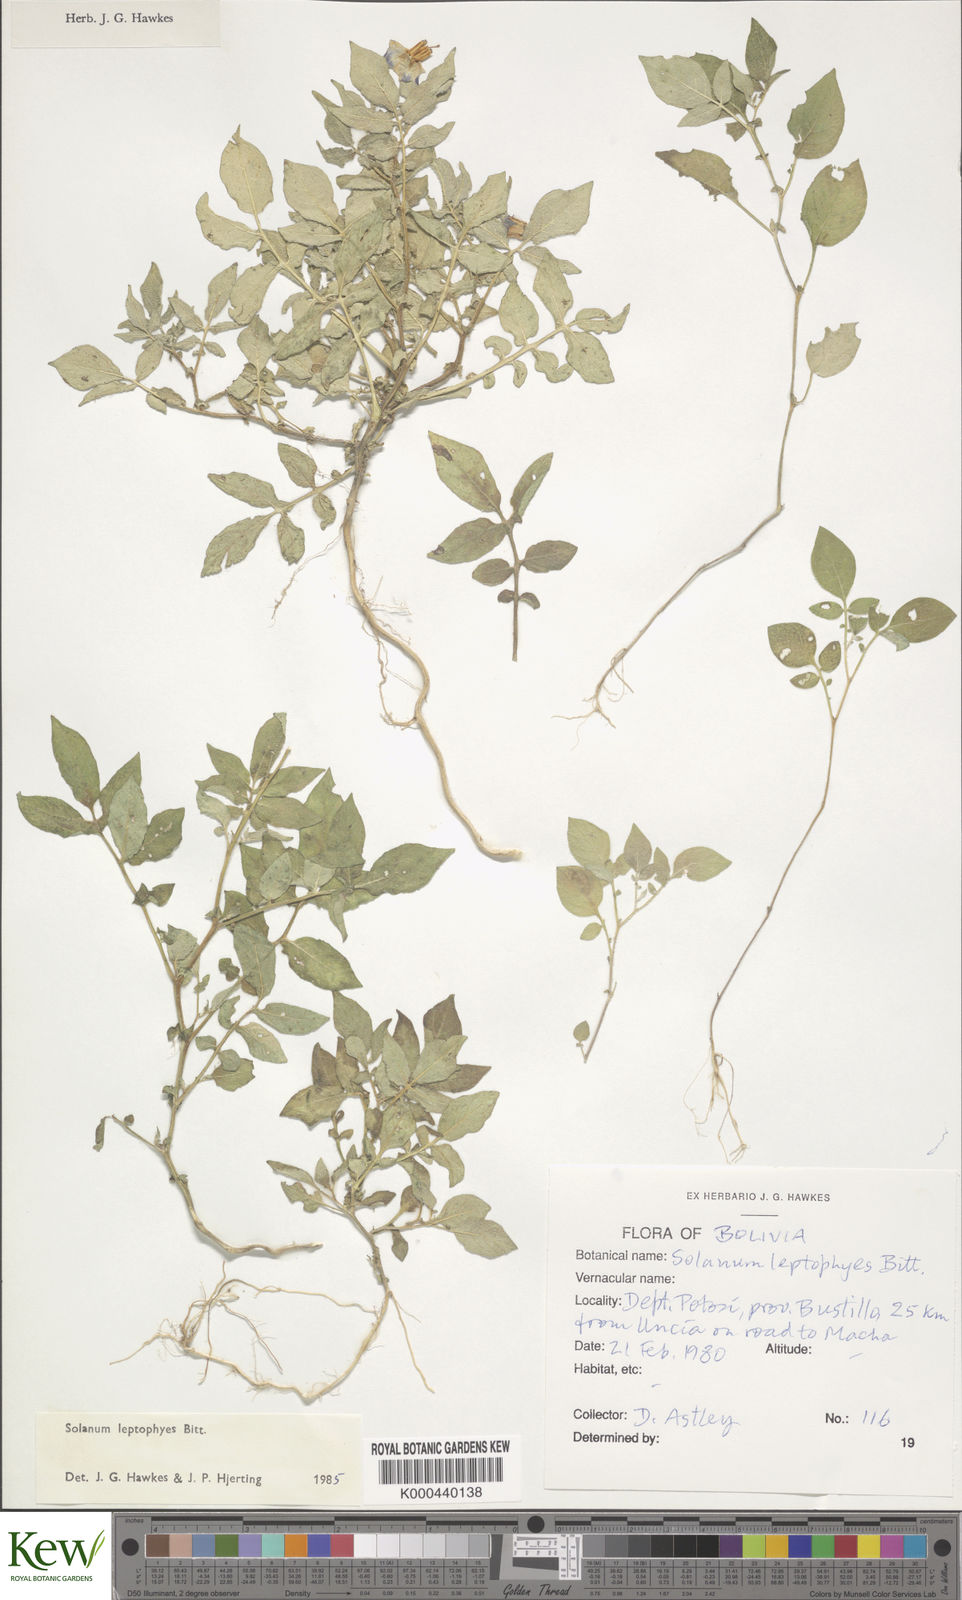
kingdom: Plantae
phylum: Tracheophyta
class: Magnoliopsida
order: Solanales
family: Solanaceae
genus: Solanum
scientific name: Solanum brevicaule
